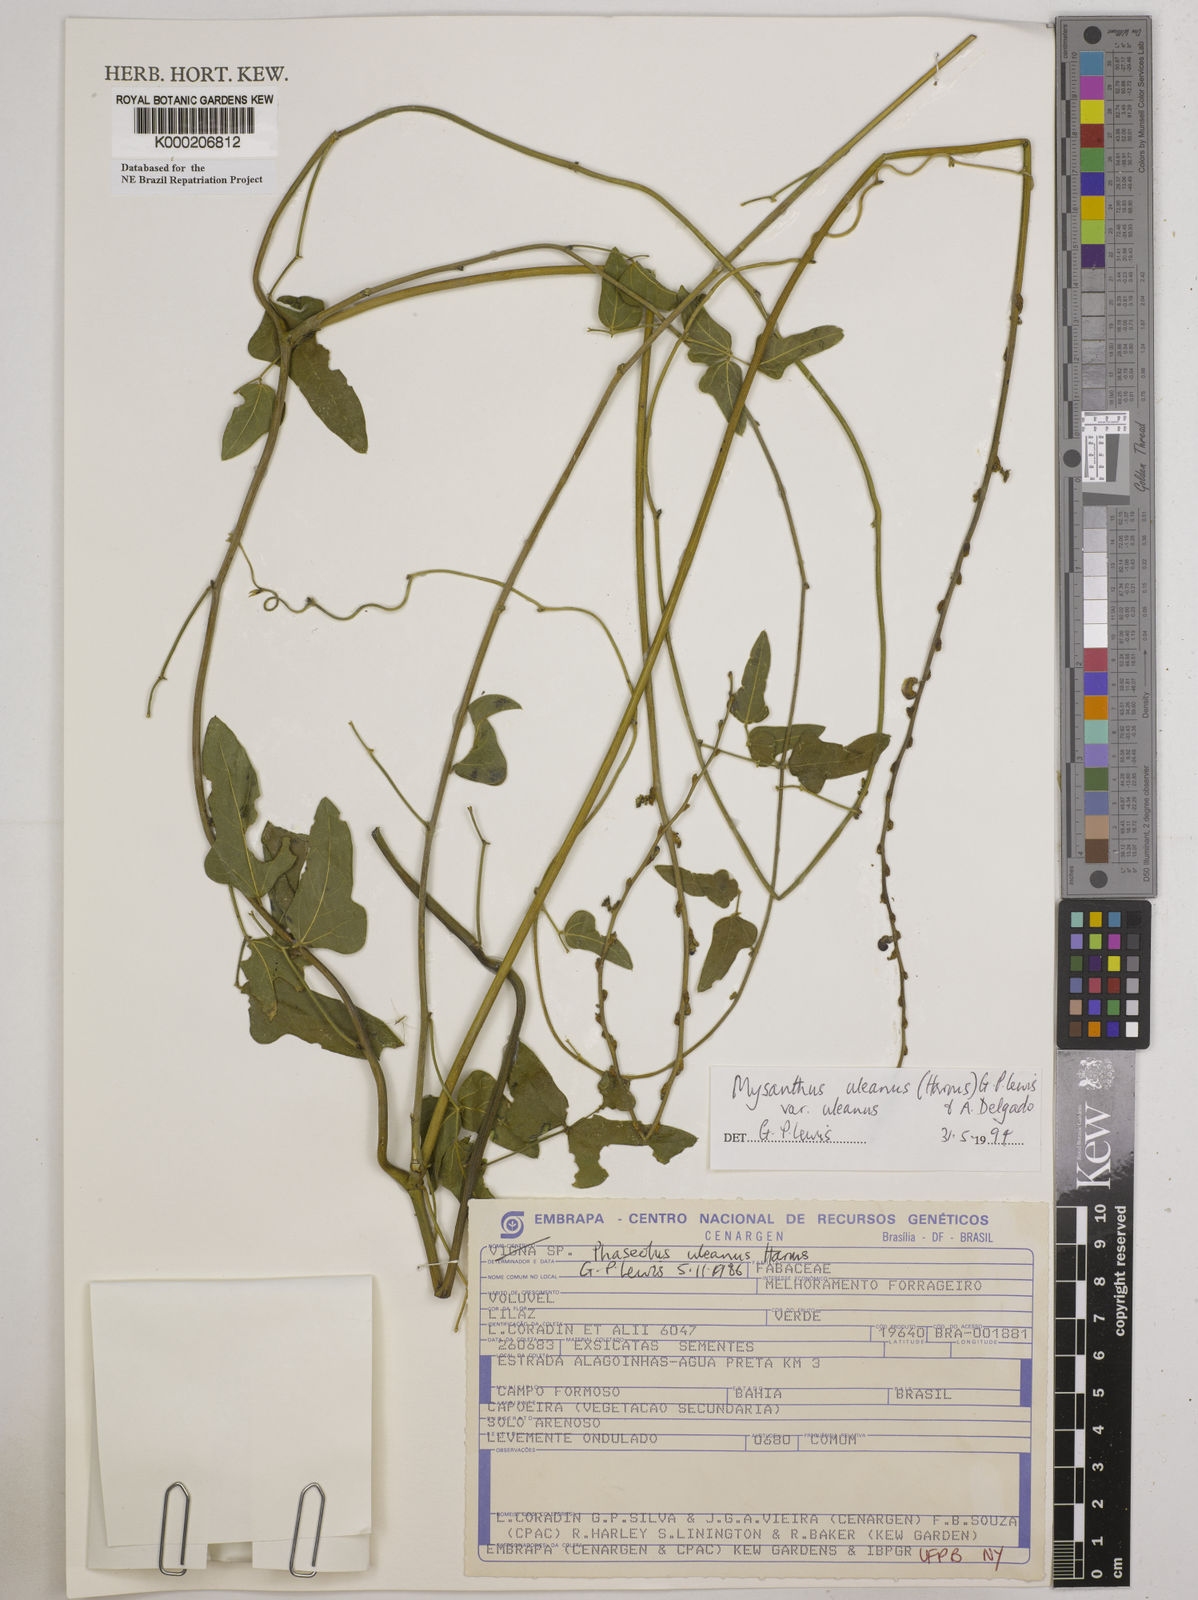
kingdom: Plantae
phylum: Tracheophyta
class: Magnoliopsida
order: Fabales
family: Fabaceae
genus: Mysanthus
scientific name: Mysanthus uleanus
